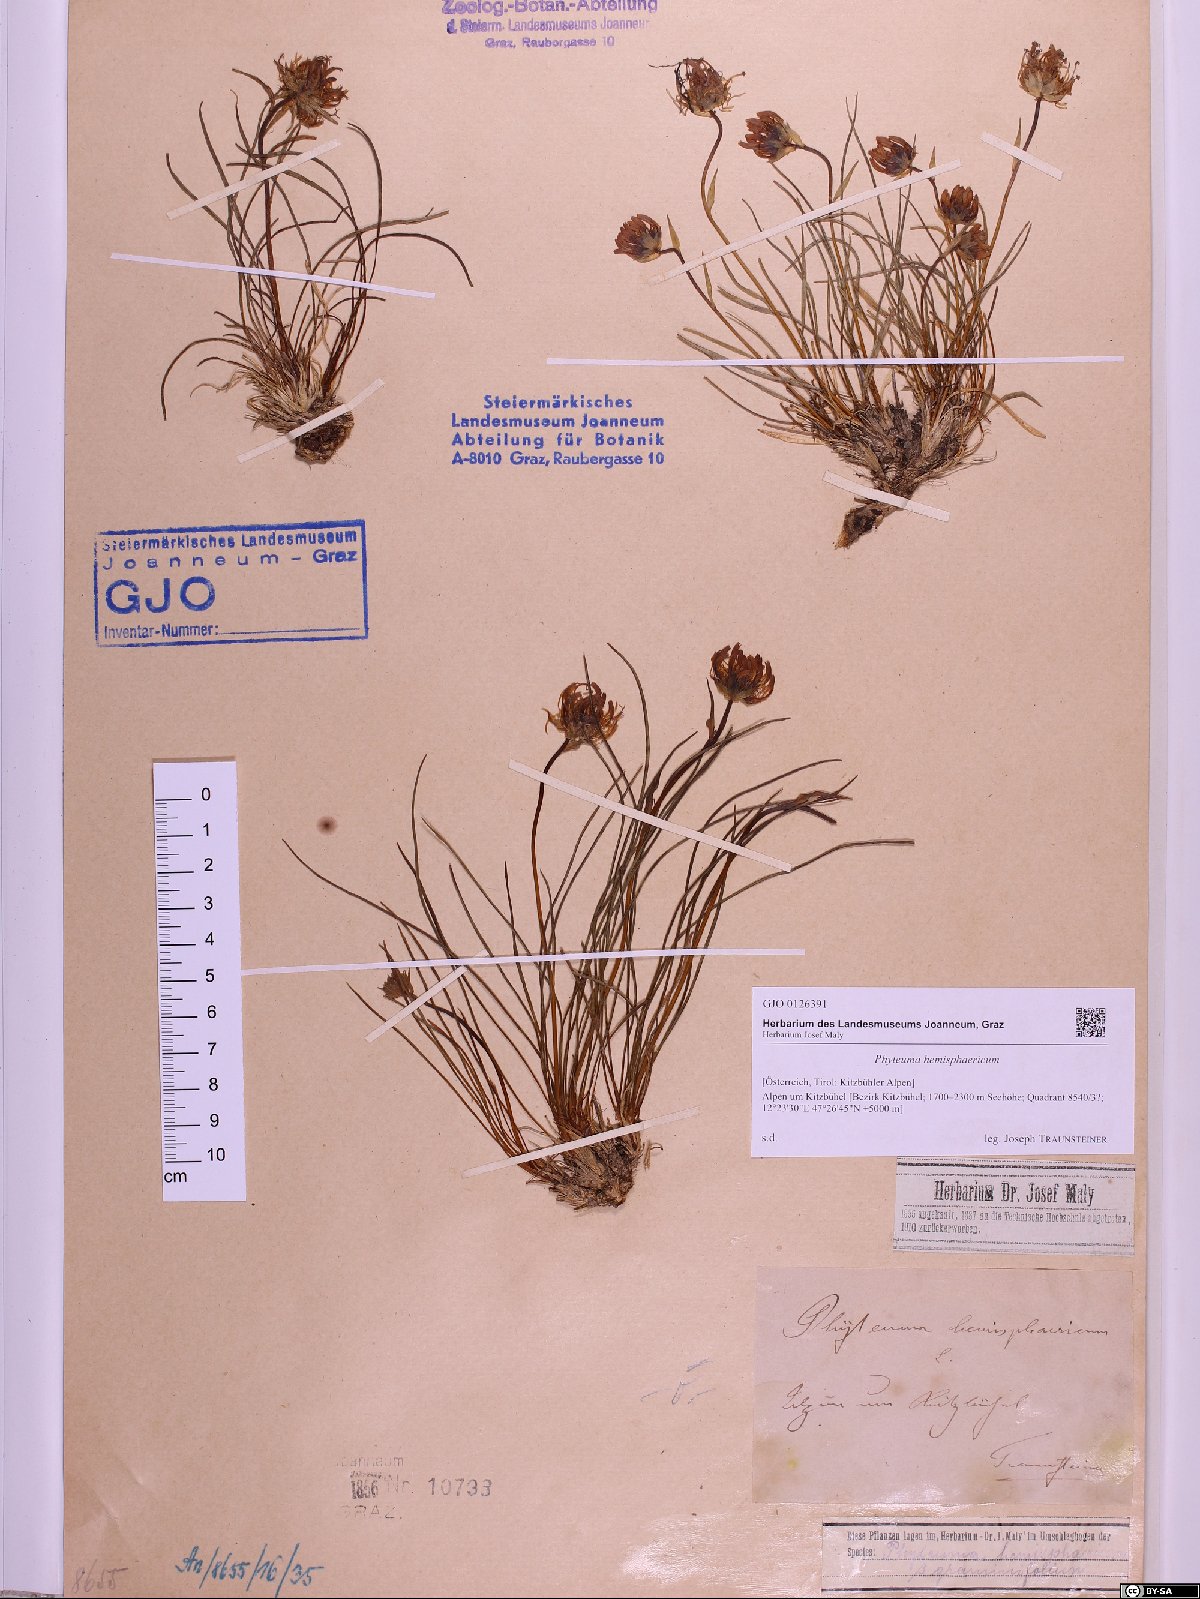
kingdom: Plantae
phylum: Tracheophyta
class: Magnoliopsida
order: Asterales
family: Campanulaceae
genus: Phyteuma
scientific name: Phyteuma hemisphaericum
